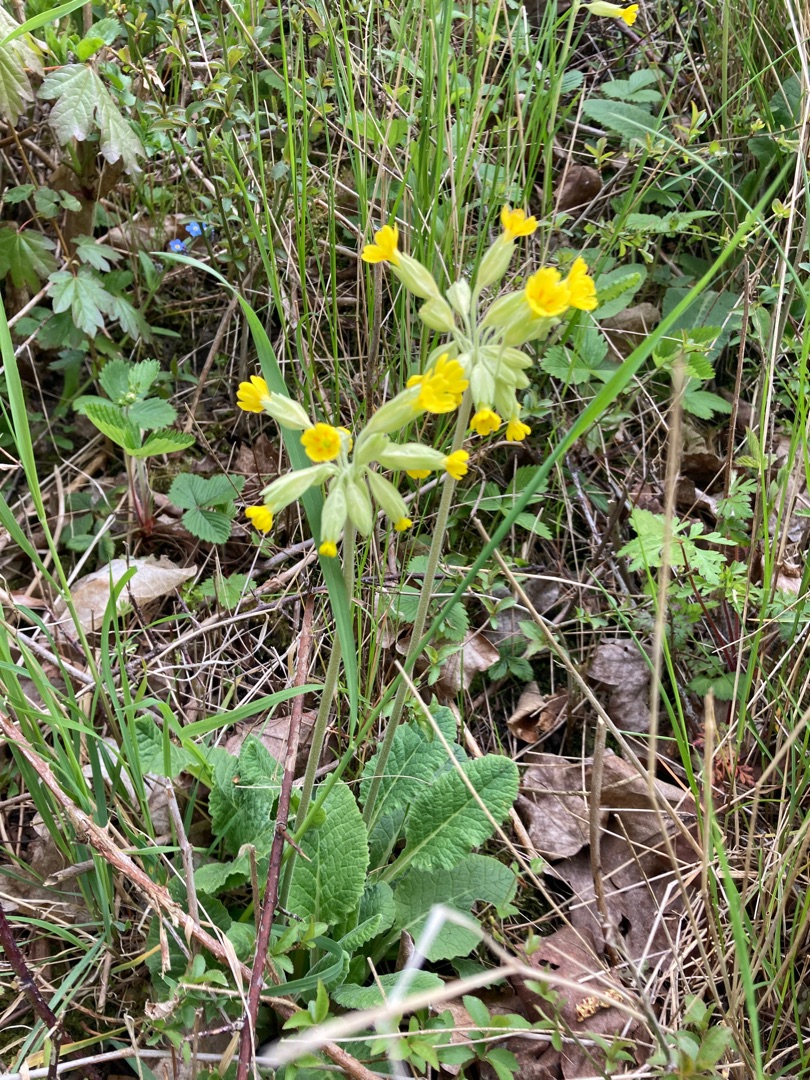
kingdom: Plantae
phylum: Tracheophyta
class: Magnoliopsida
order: Ericales
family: Primulaceae
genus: Primula
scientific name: Primula veris
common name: Hulkravet kodriver
